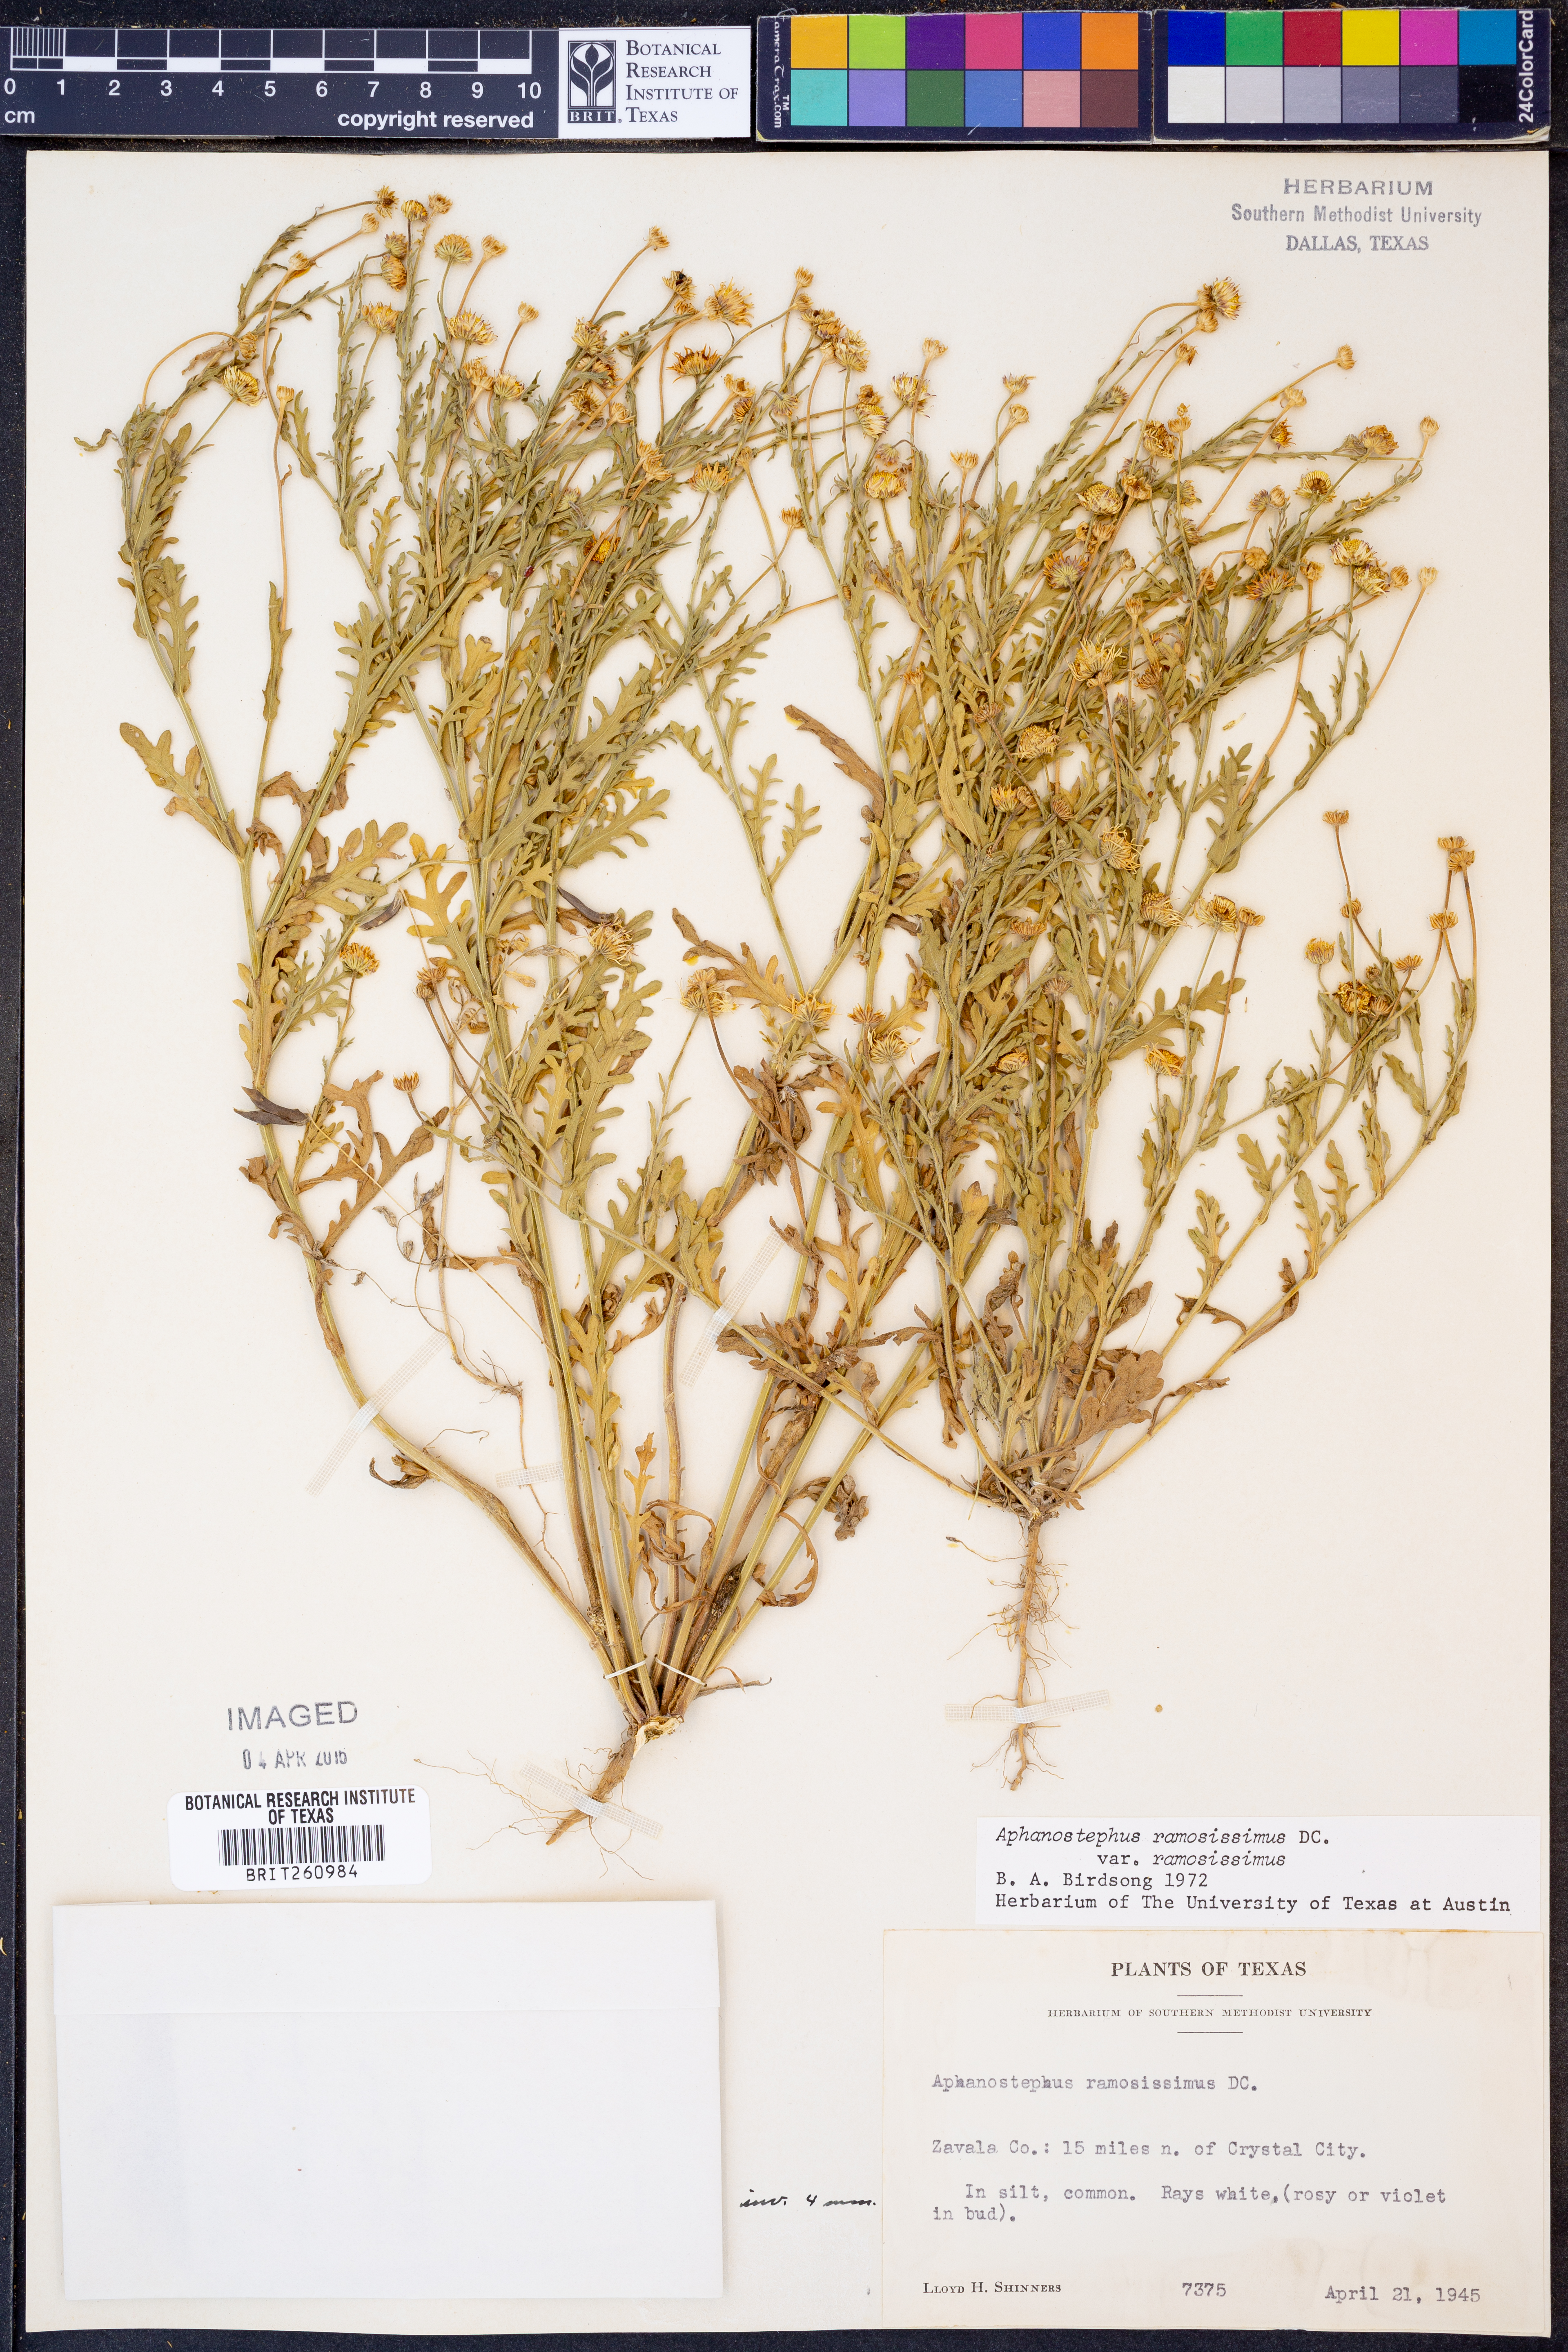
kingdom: Plantae
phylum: Tracheophyta
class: Magnoliopsida
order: Asterales
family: Asteraceae
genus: Aphanostephus
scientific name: Aphanostephus ramosissimus
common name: Plains lazy daisy
